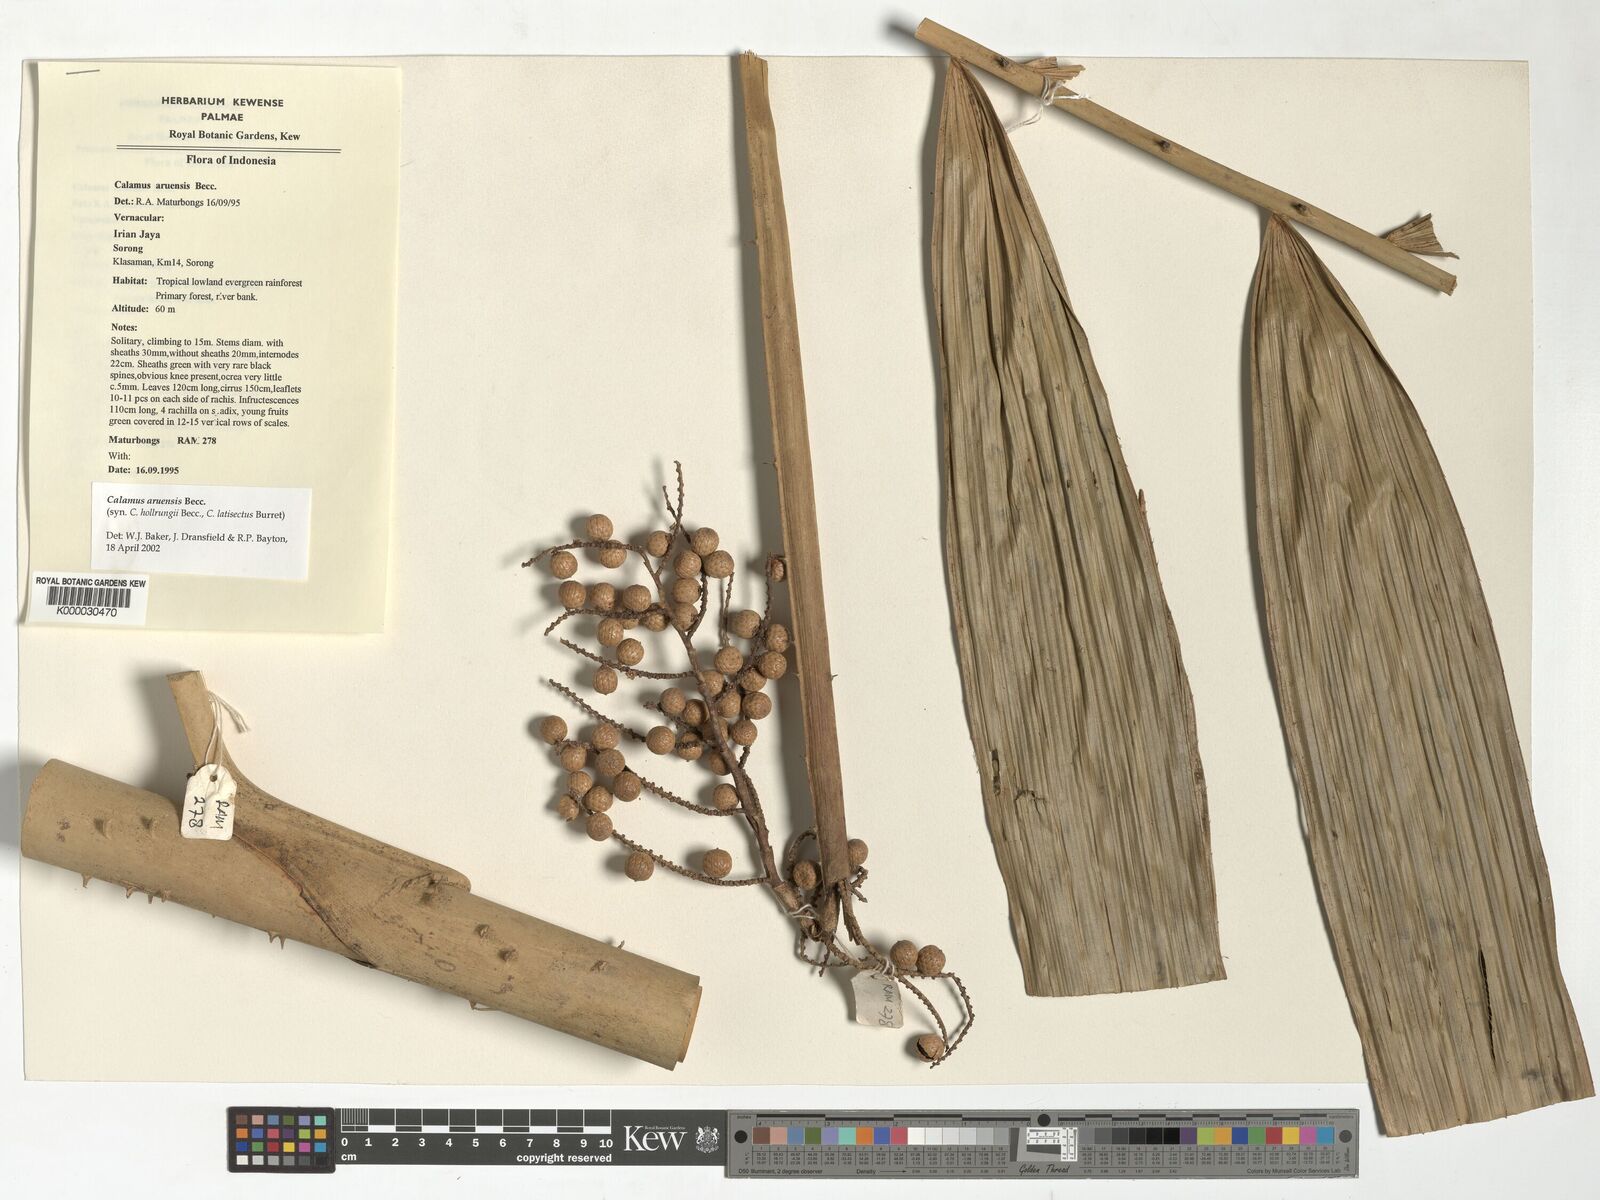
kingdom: Plantae
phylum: Tracheophyta
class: Liliopsida
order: Arecales
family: Arecaceae
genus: Calamus
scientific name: Calamus aruensis
